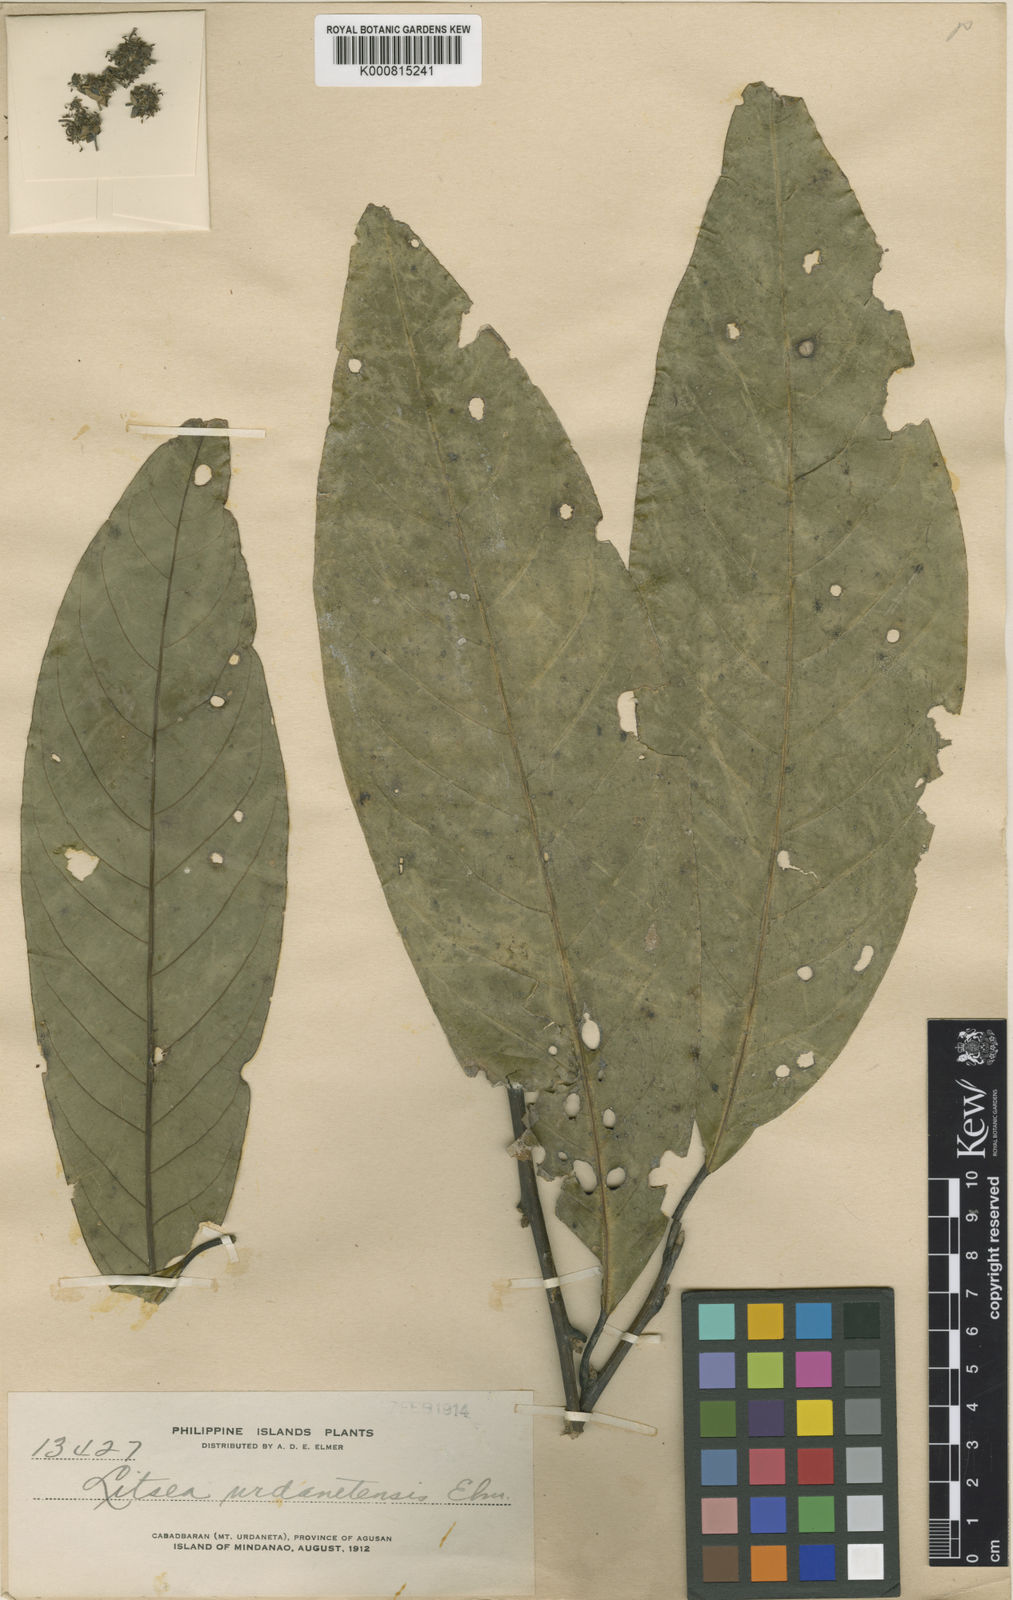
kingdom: Plantae
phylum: Tracheophyta
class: Magnoliopsida
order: Laurales
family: Lauraceae
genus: Litsea
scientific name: Litsea albayana
